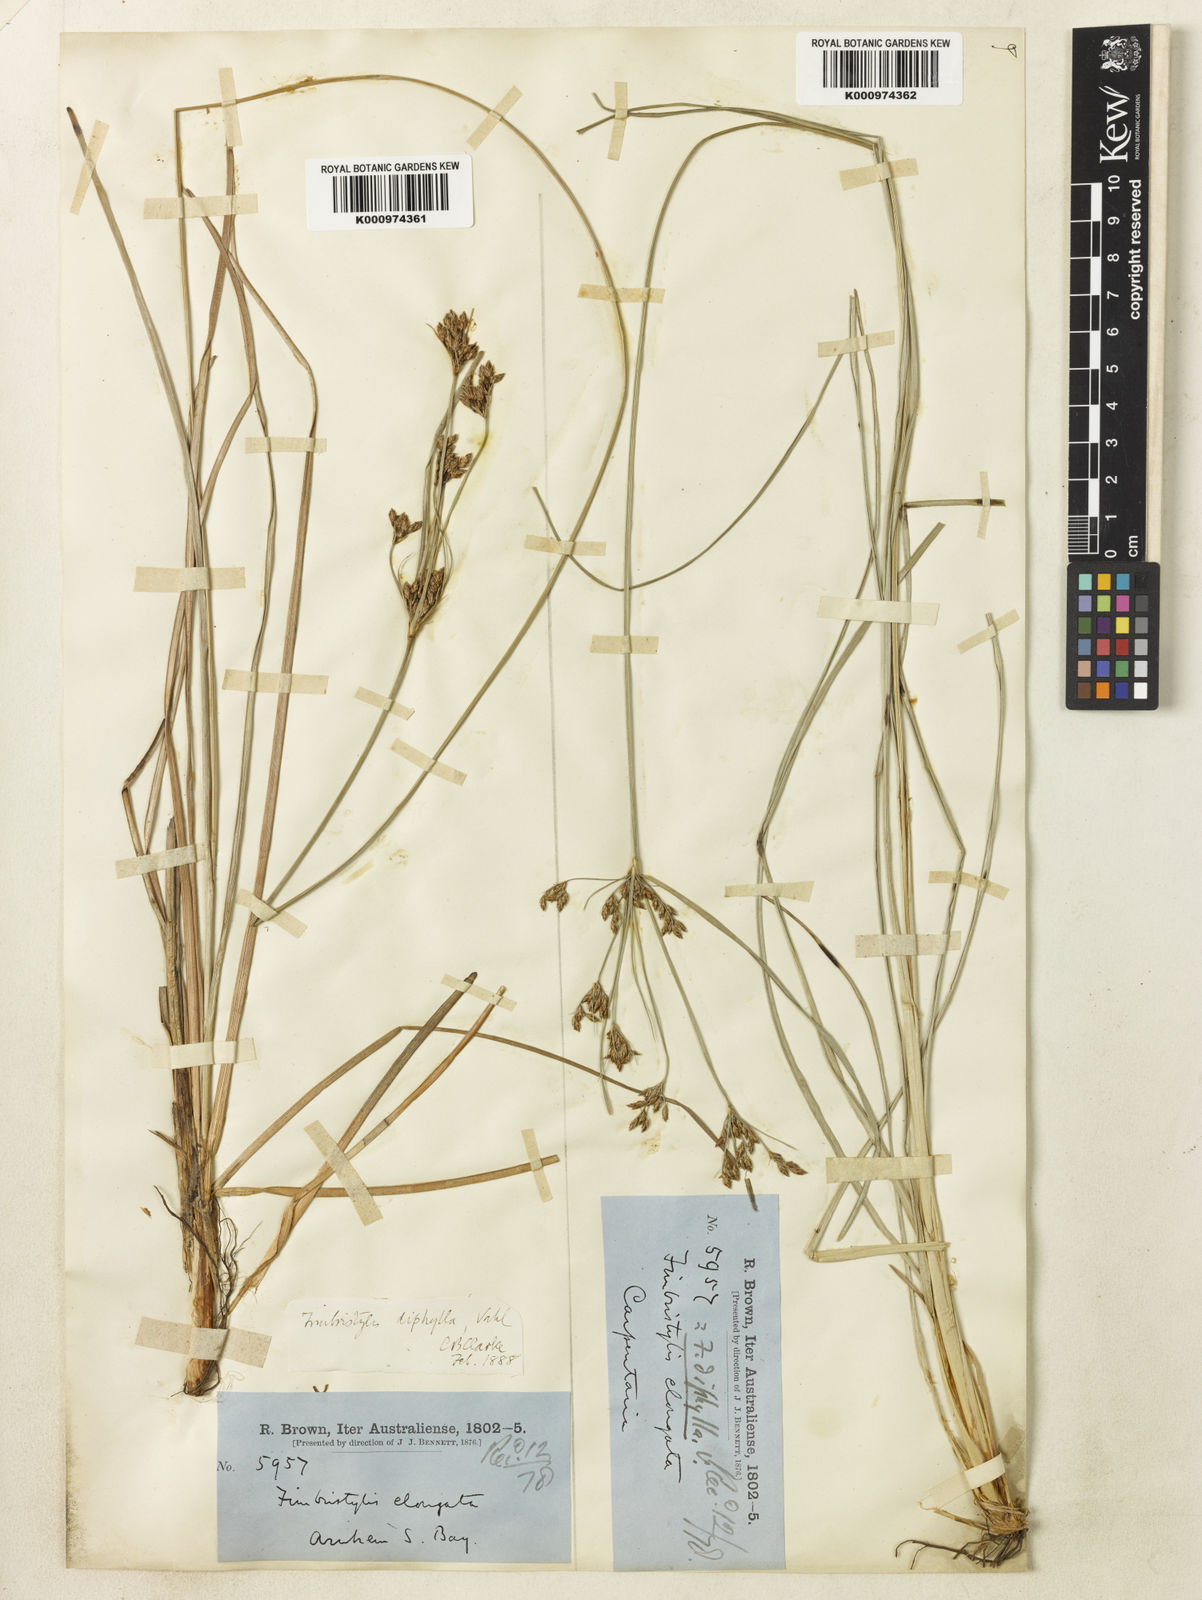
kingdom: Plantae
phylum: Tracheophyta
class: Liliopsida
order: Poales
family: Cyperaceae
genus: Fimbristylis
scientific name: Fimbristylis dichotoma
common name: Forked fimbry
